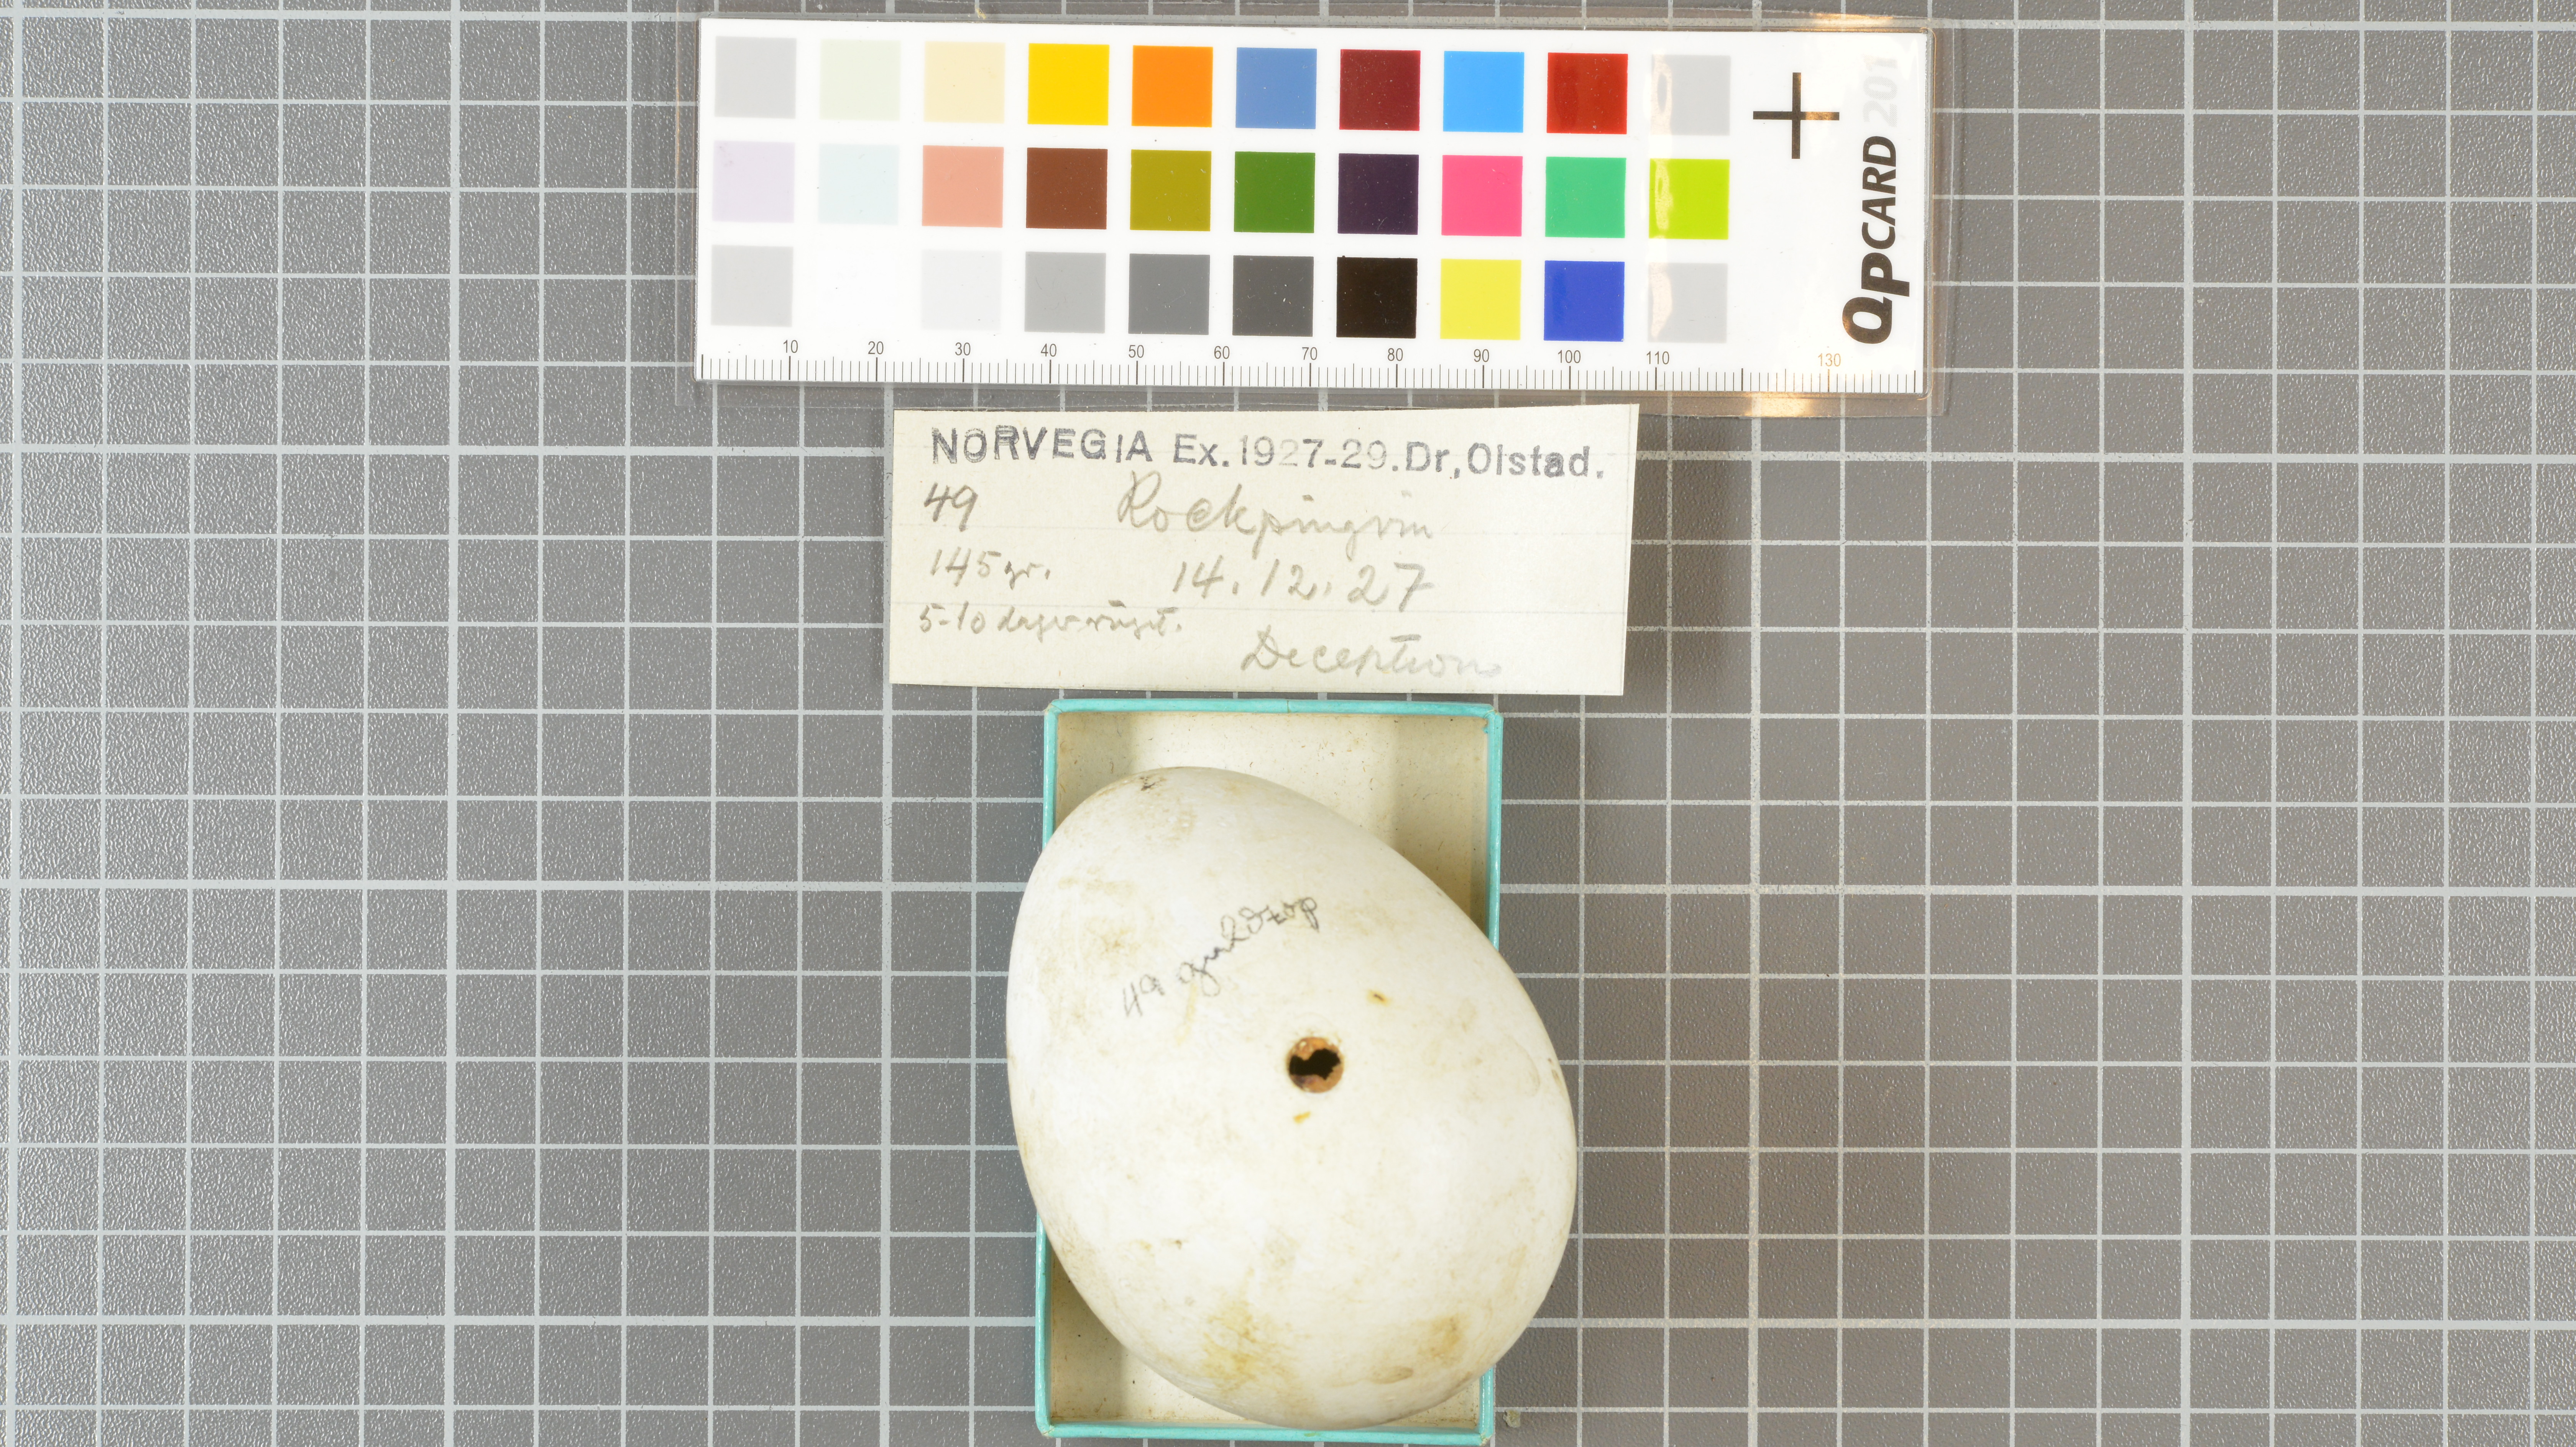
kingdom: Animalia
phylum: Chordata
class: Aves
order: Sphenisciformes
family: Spheniscidae
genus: Eudyptes
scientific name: Eudyptes chrysolophus
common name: Macaroni penguin
